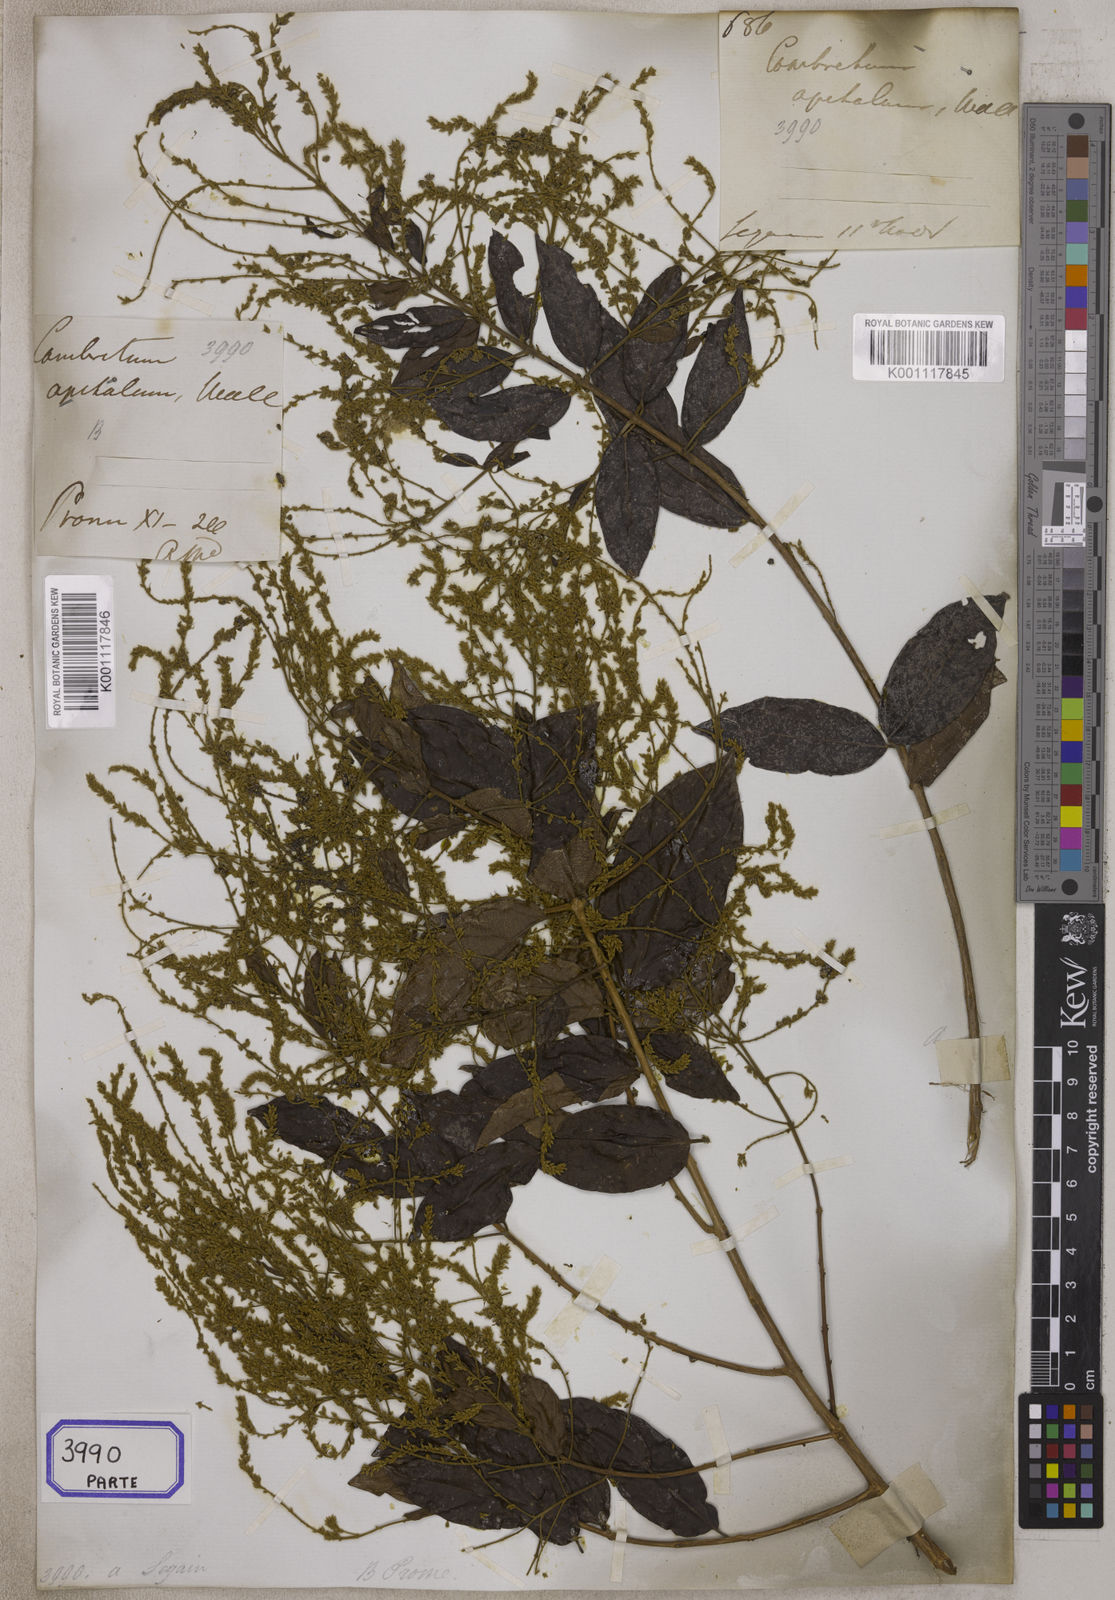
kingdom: Plantae
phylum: Tracheophyta
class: Magnoliopsida
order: Myrtales
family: Combretaceae
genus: Combretum
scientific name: Combretum
